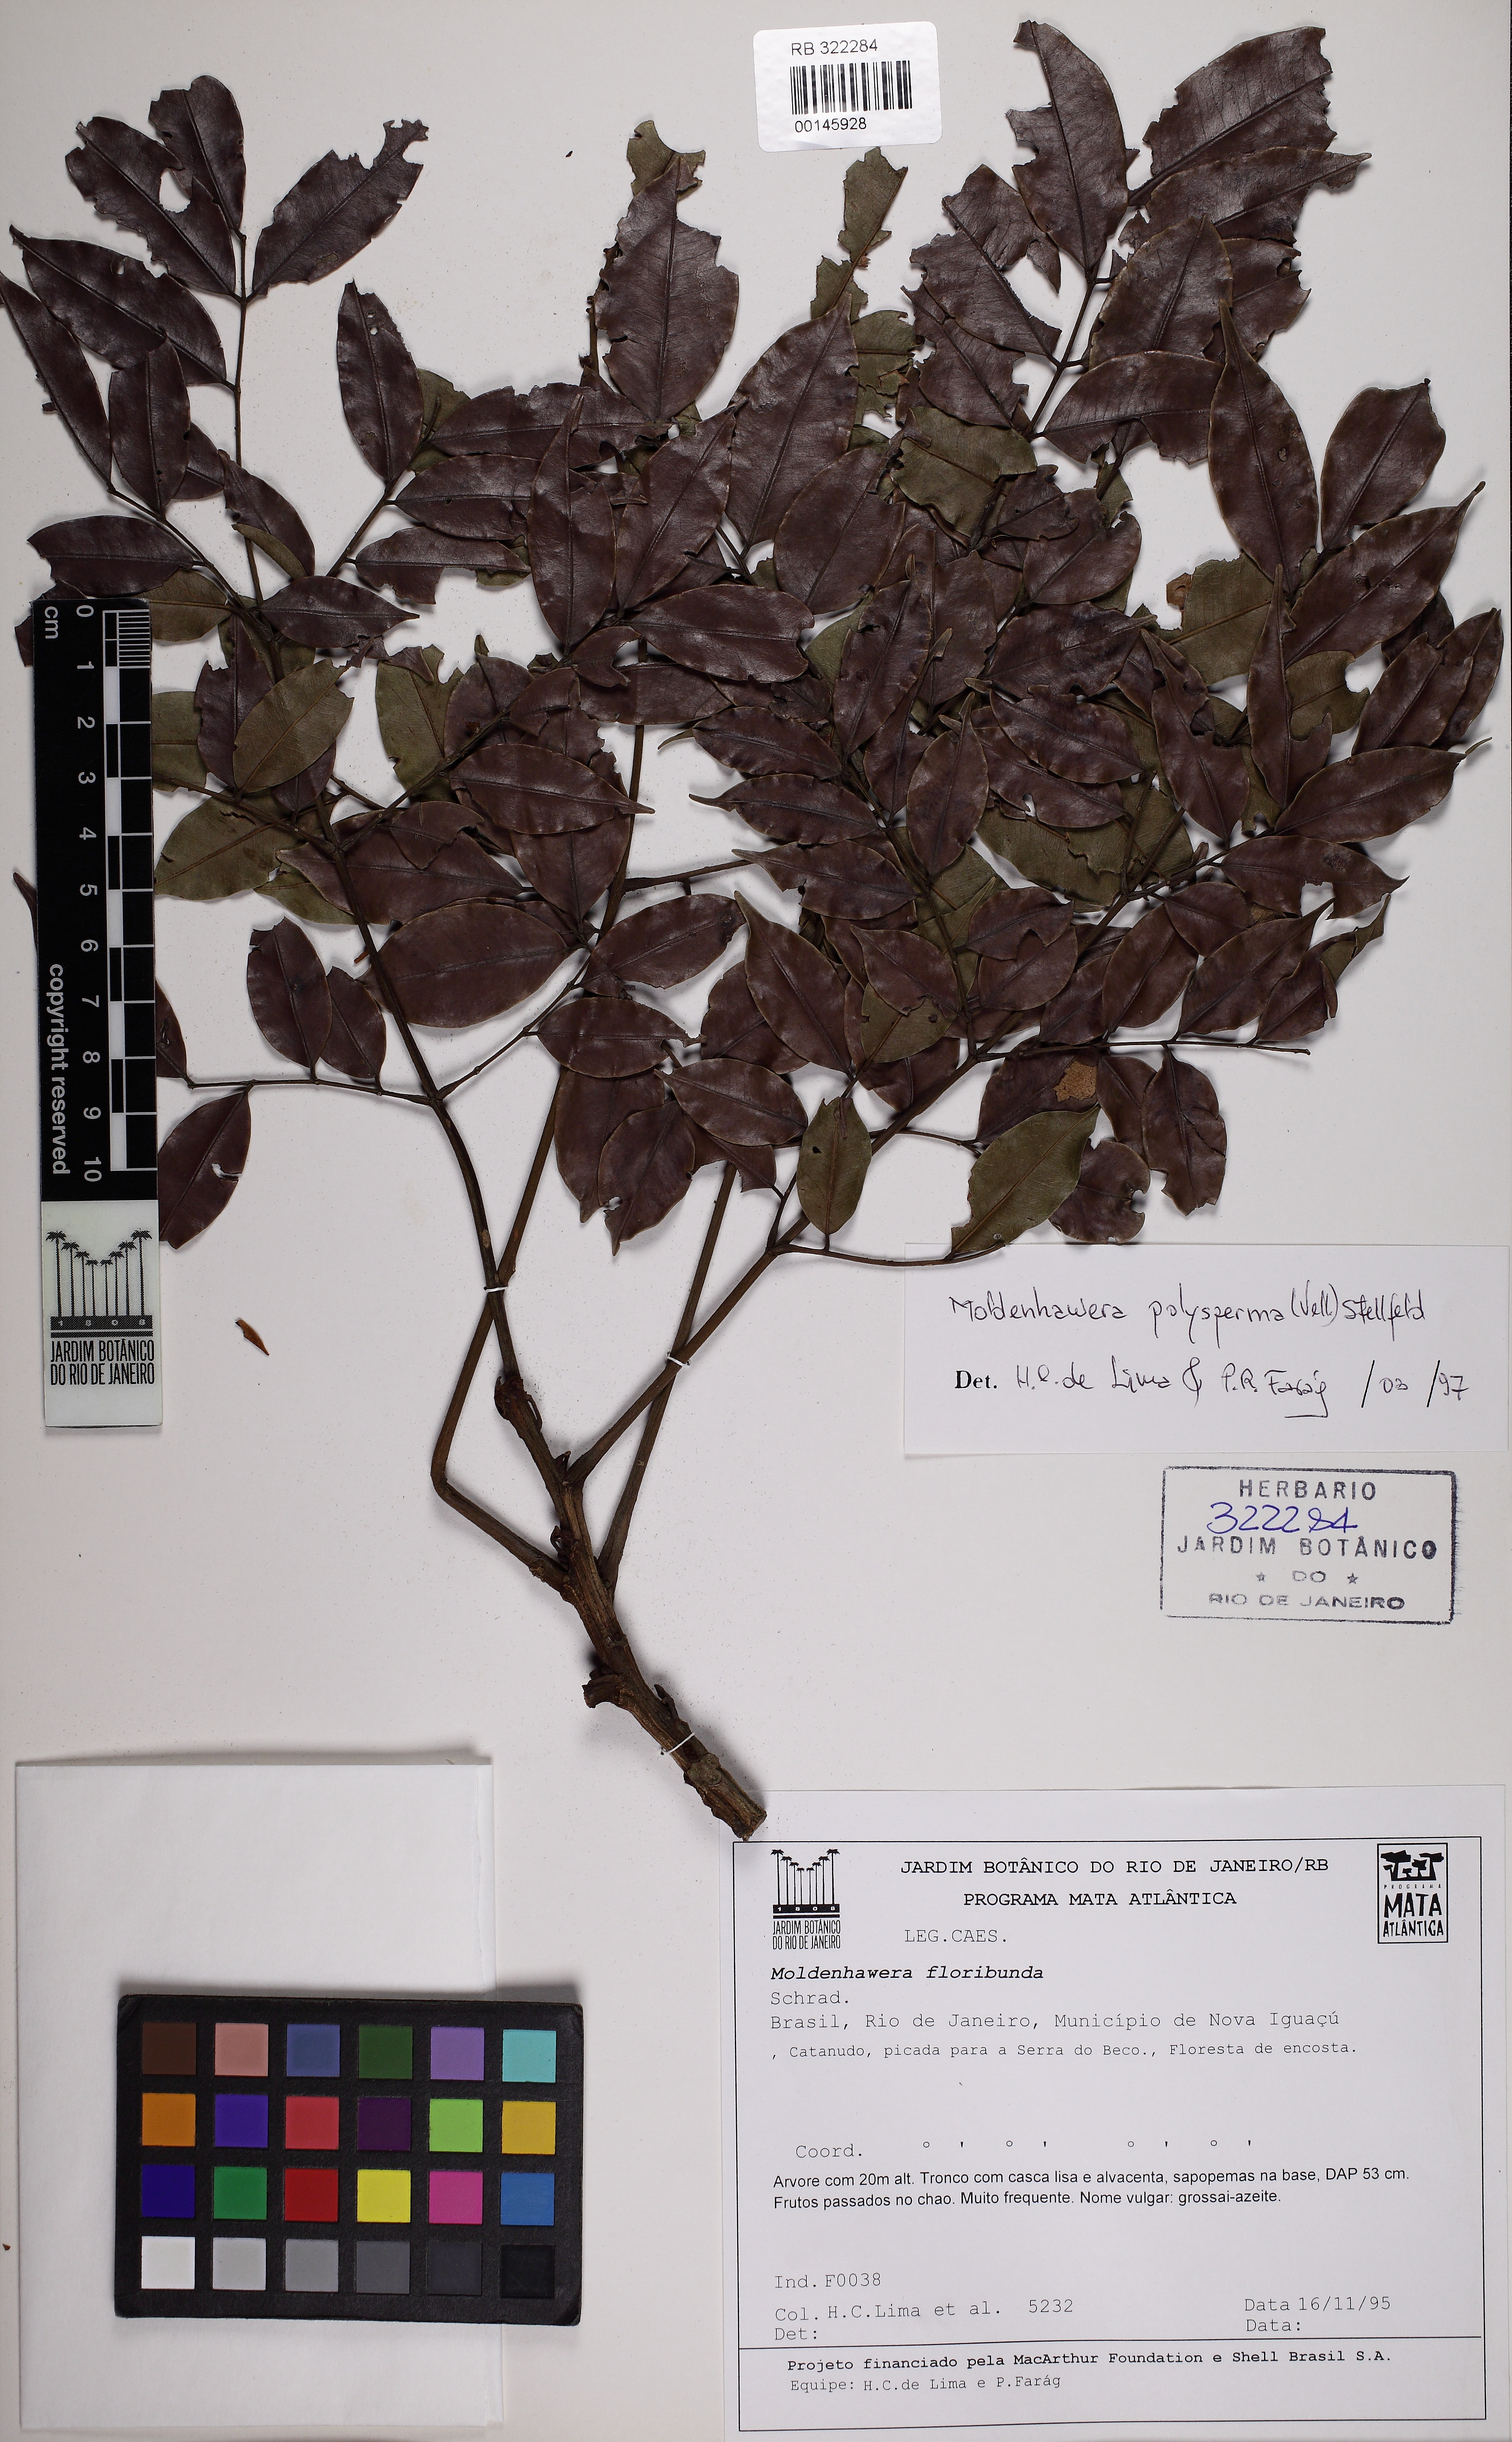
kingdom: Plantae
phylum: Tracheophyta
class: Magnoliopsida
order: Fabales
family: Fabaceae
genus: Moldenhawera
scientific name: Moldenhawera polysperma
